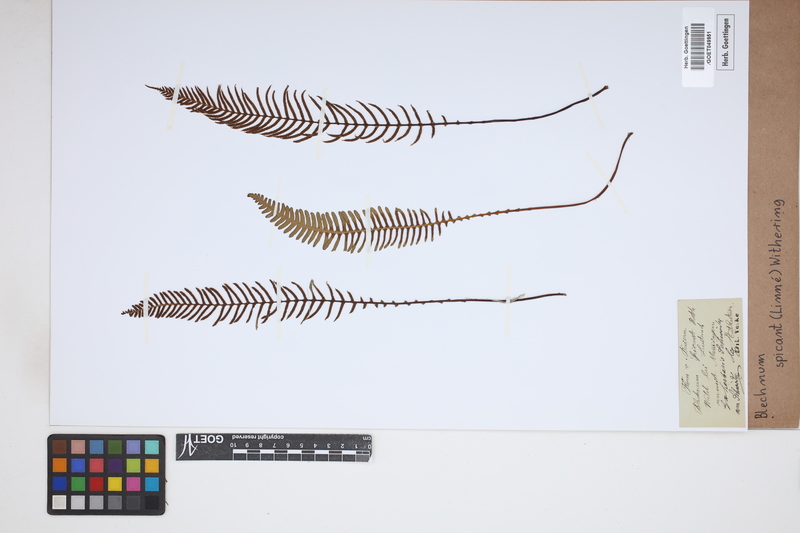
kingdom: Plantae
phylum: Tracheophyta
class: Polypodiopsida
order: Polypodiales
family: Blechnaceae
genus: Struthiopteris
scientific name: Struthiopteris spicant
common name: Deer fern
